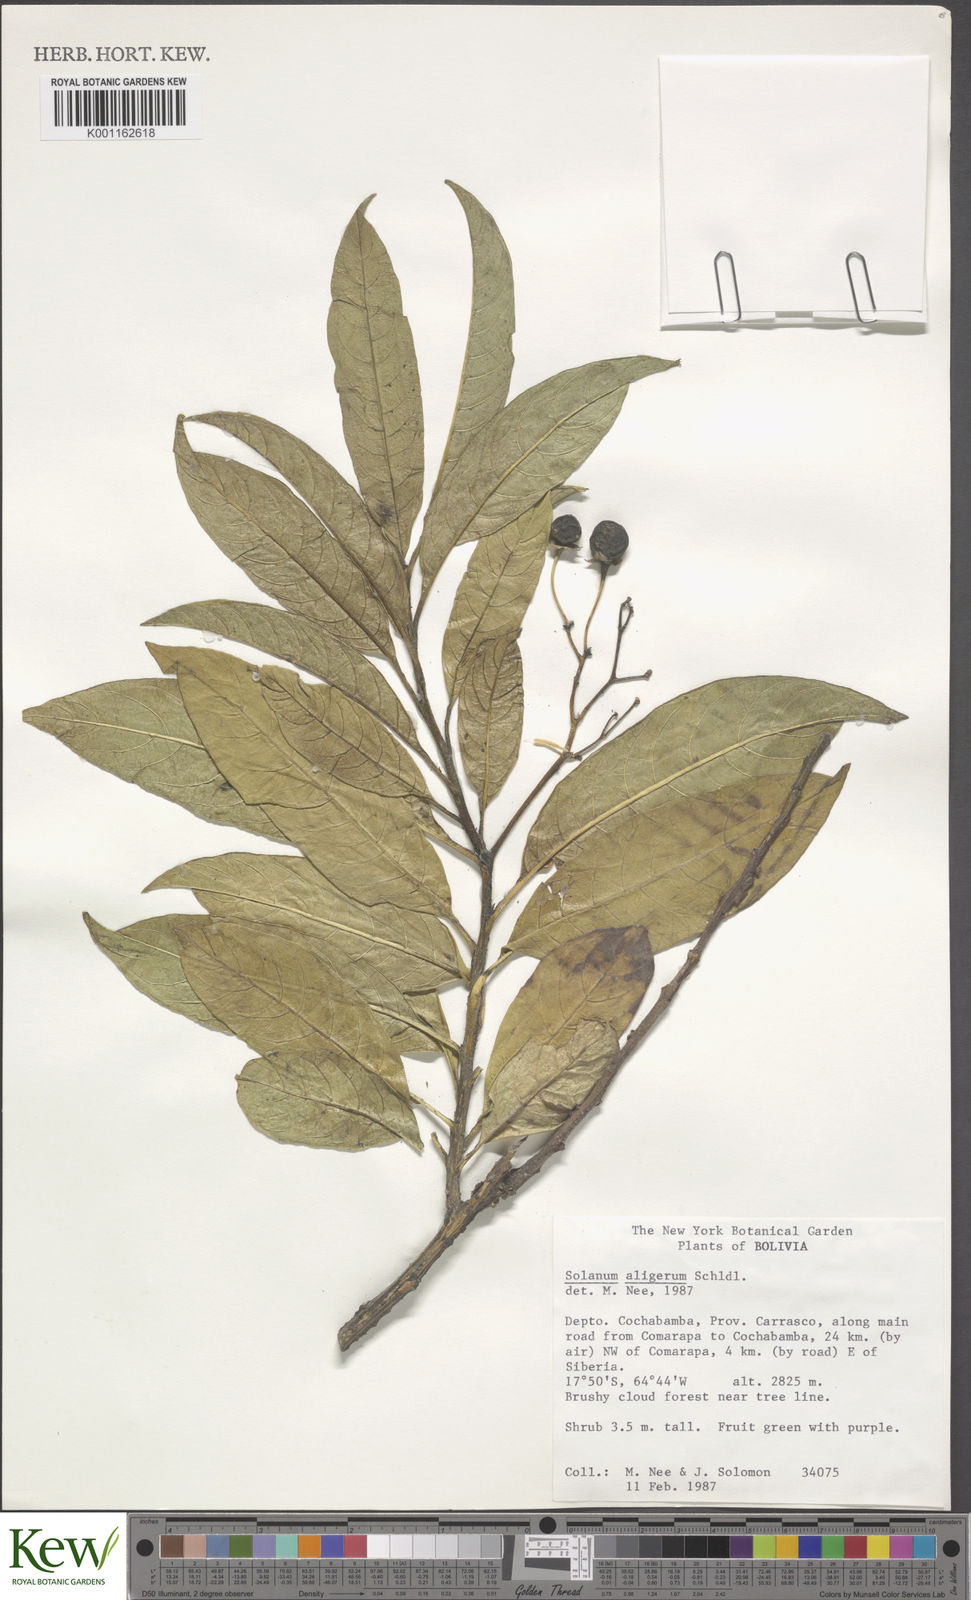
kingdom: Plantae
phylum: Tracheophyta
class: Magnoliopsida
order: Solanales
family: Solanaceae
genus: Solanum
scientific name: Solanum aligerum
